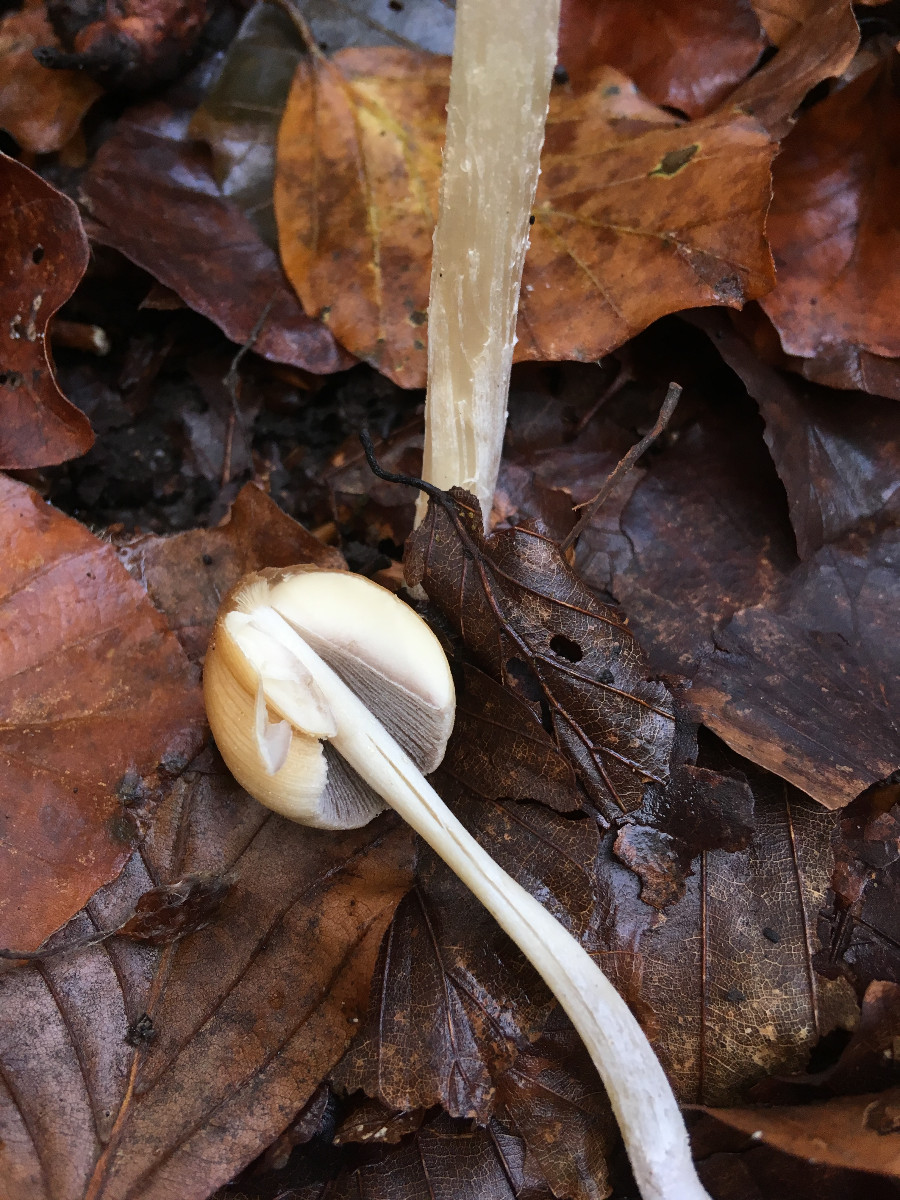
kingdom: Fungi
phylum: Basidiomycota
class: Agaricomycetes
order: Agaricales
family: Psathyrellaceae
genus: Coprinellus
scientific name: Coprinellus micaceus
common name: glimmer-blækhat
